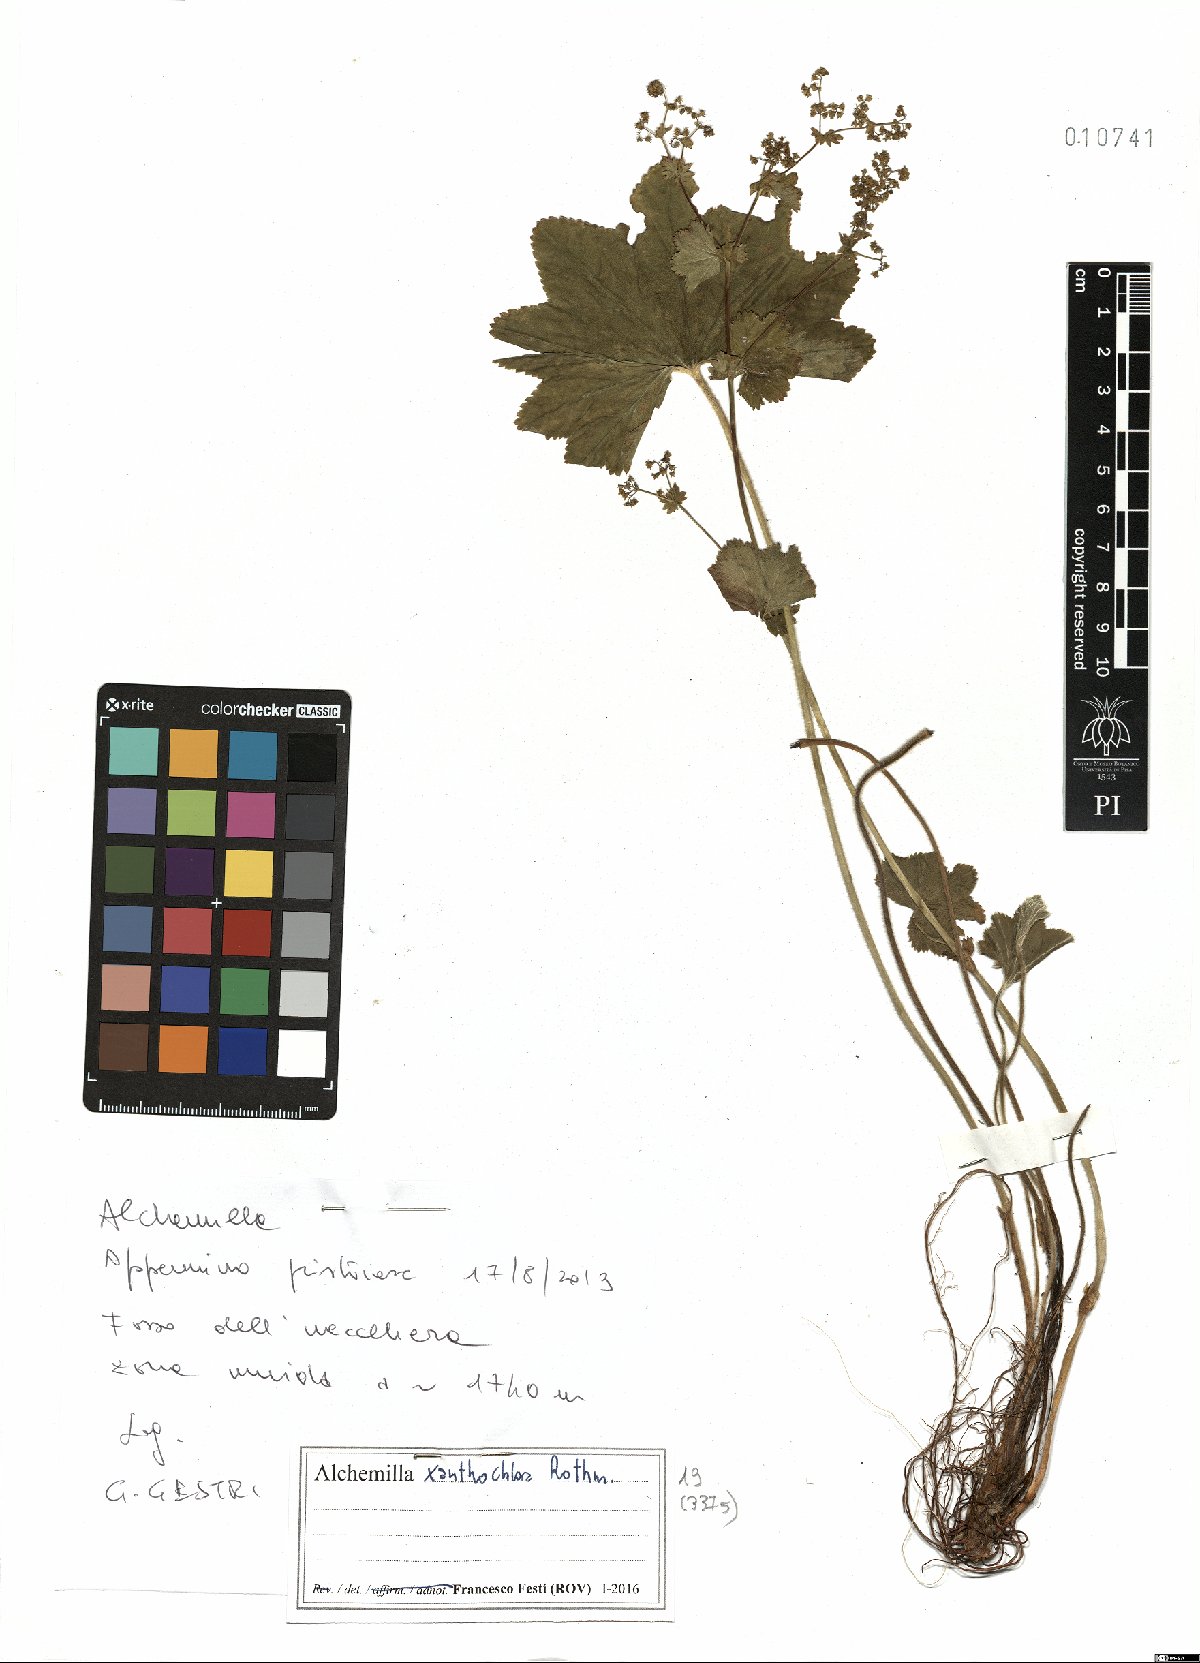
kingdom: Plantae
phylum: Tracheophyta
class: Magnoliopsida
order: Rosales
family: Rosaceae
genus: Alchemilla
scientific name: Alchemilla xanthochlora
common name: Intermediate lady's-mantle
